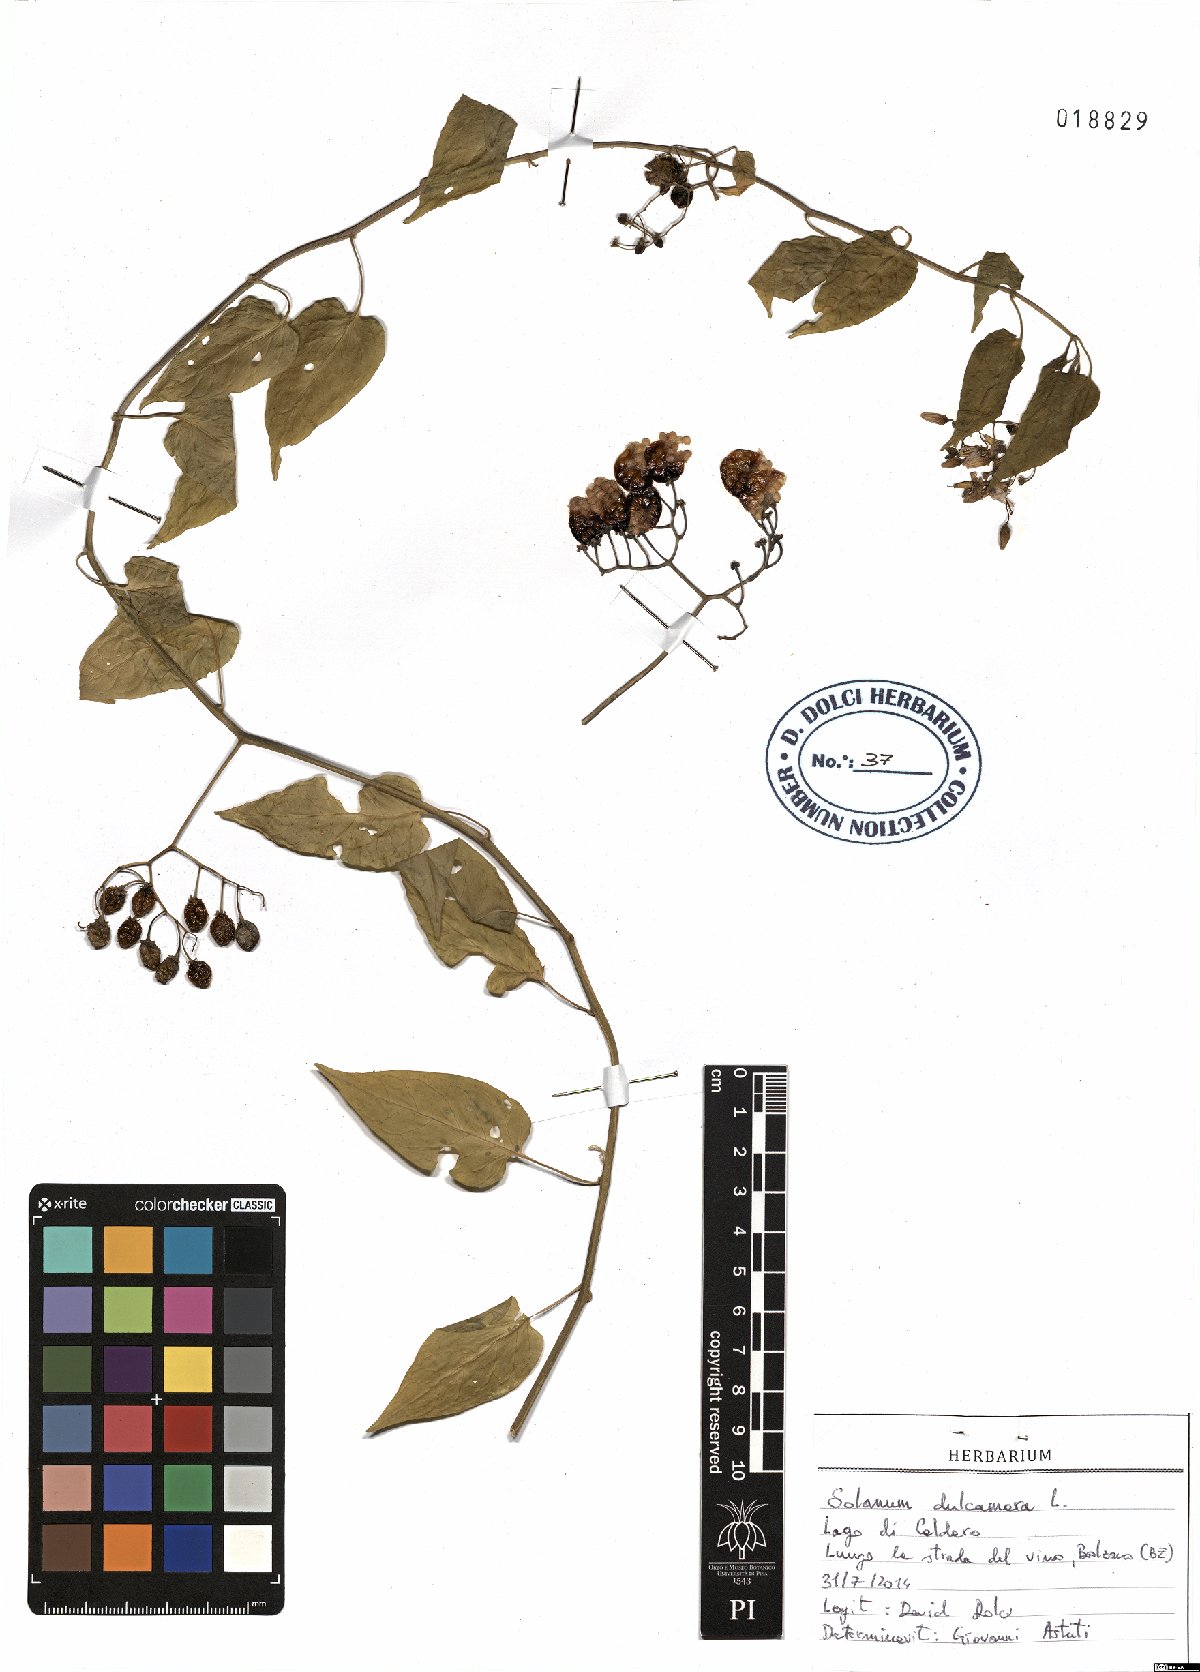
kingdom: Plantae
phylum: Tracheophyta
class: Magnoliopsida
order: Solanales
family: Solanaceae
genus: Solanum
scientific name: Solanum dulcamara
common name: Climbing nightshade
